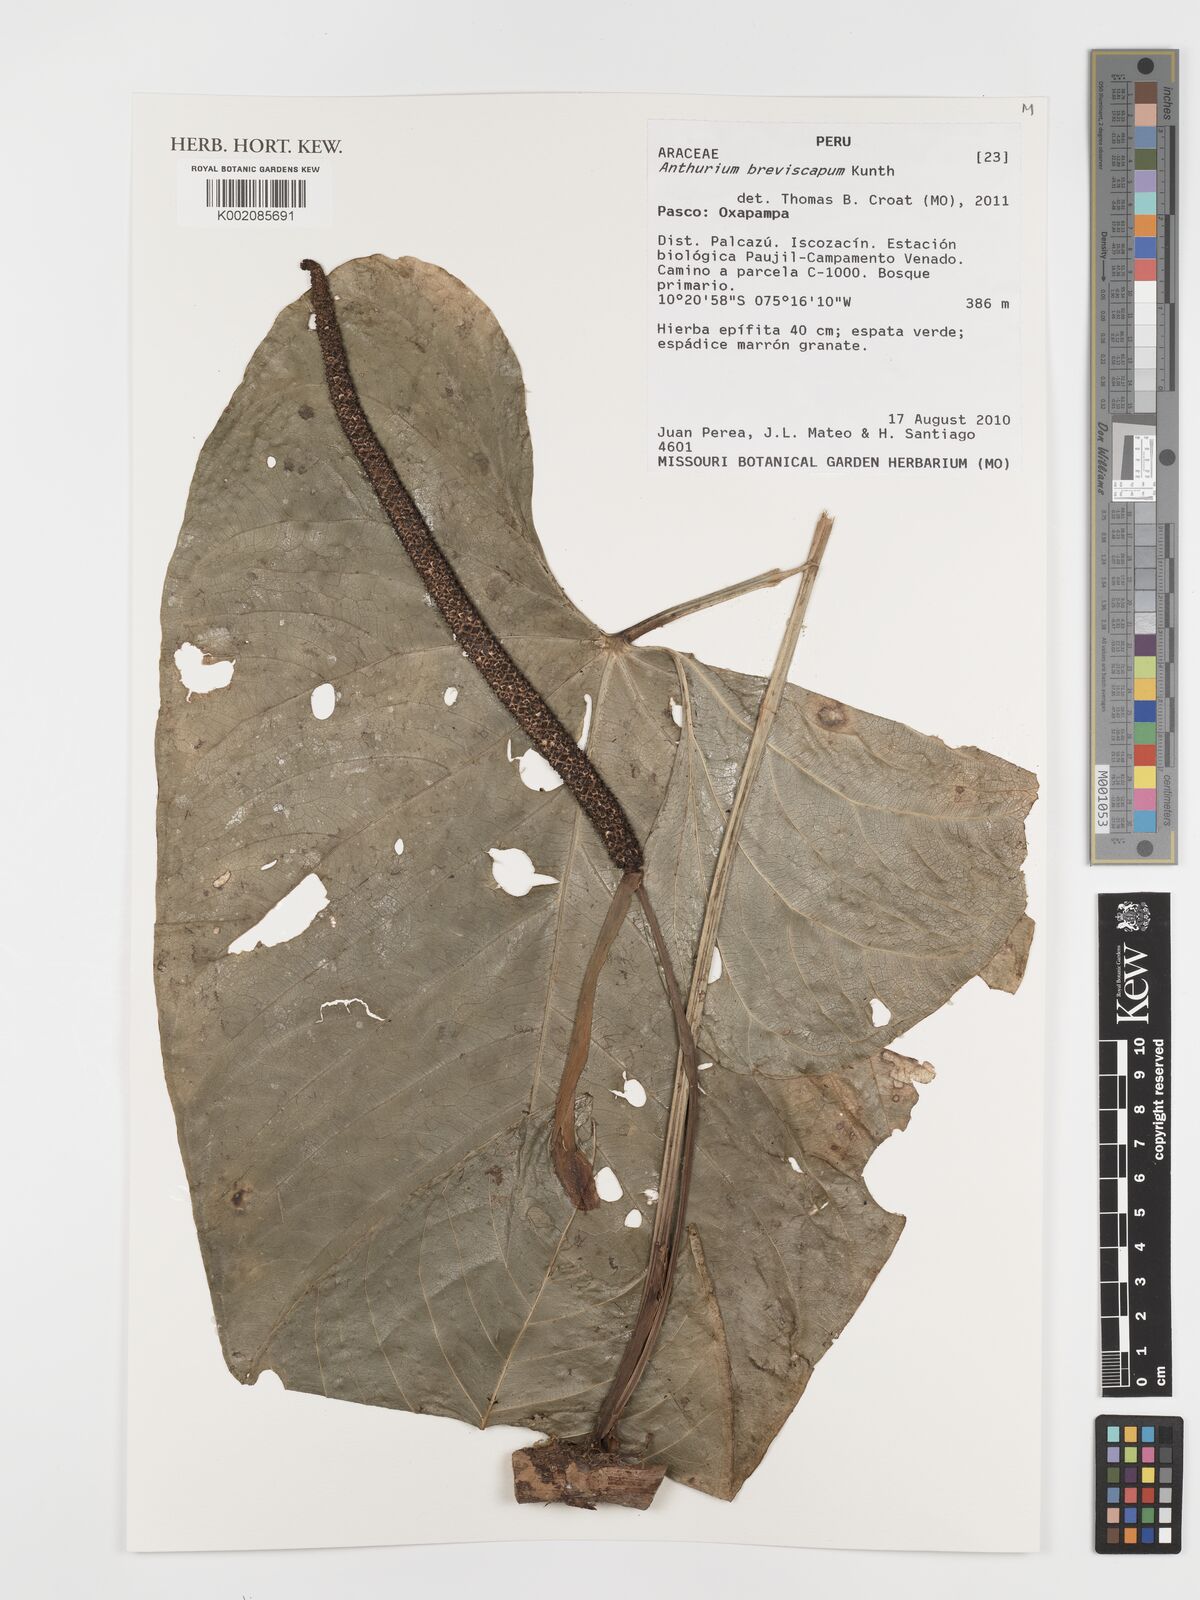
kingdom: Plantae
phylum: Tracheophyta
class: Liliopsida
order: Alismatales
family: Araceae
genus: Anthurium
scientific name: Anthurium breviscapum
